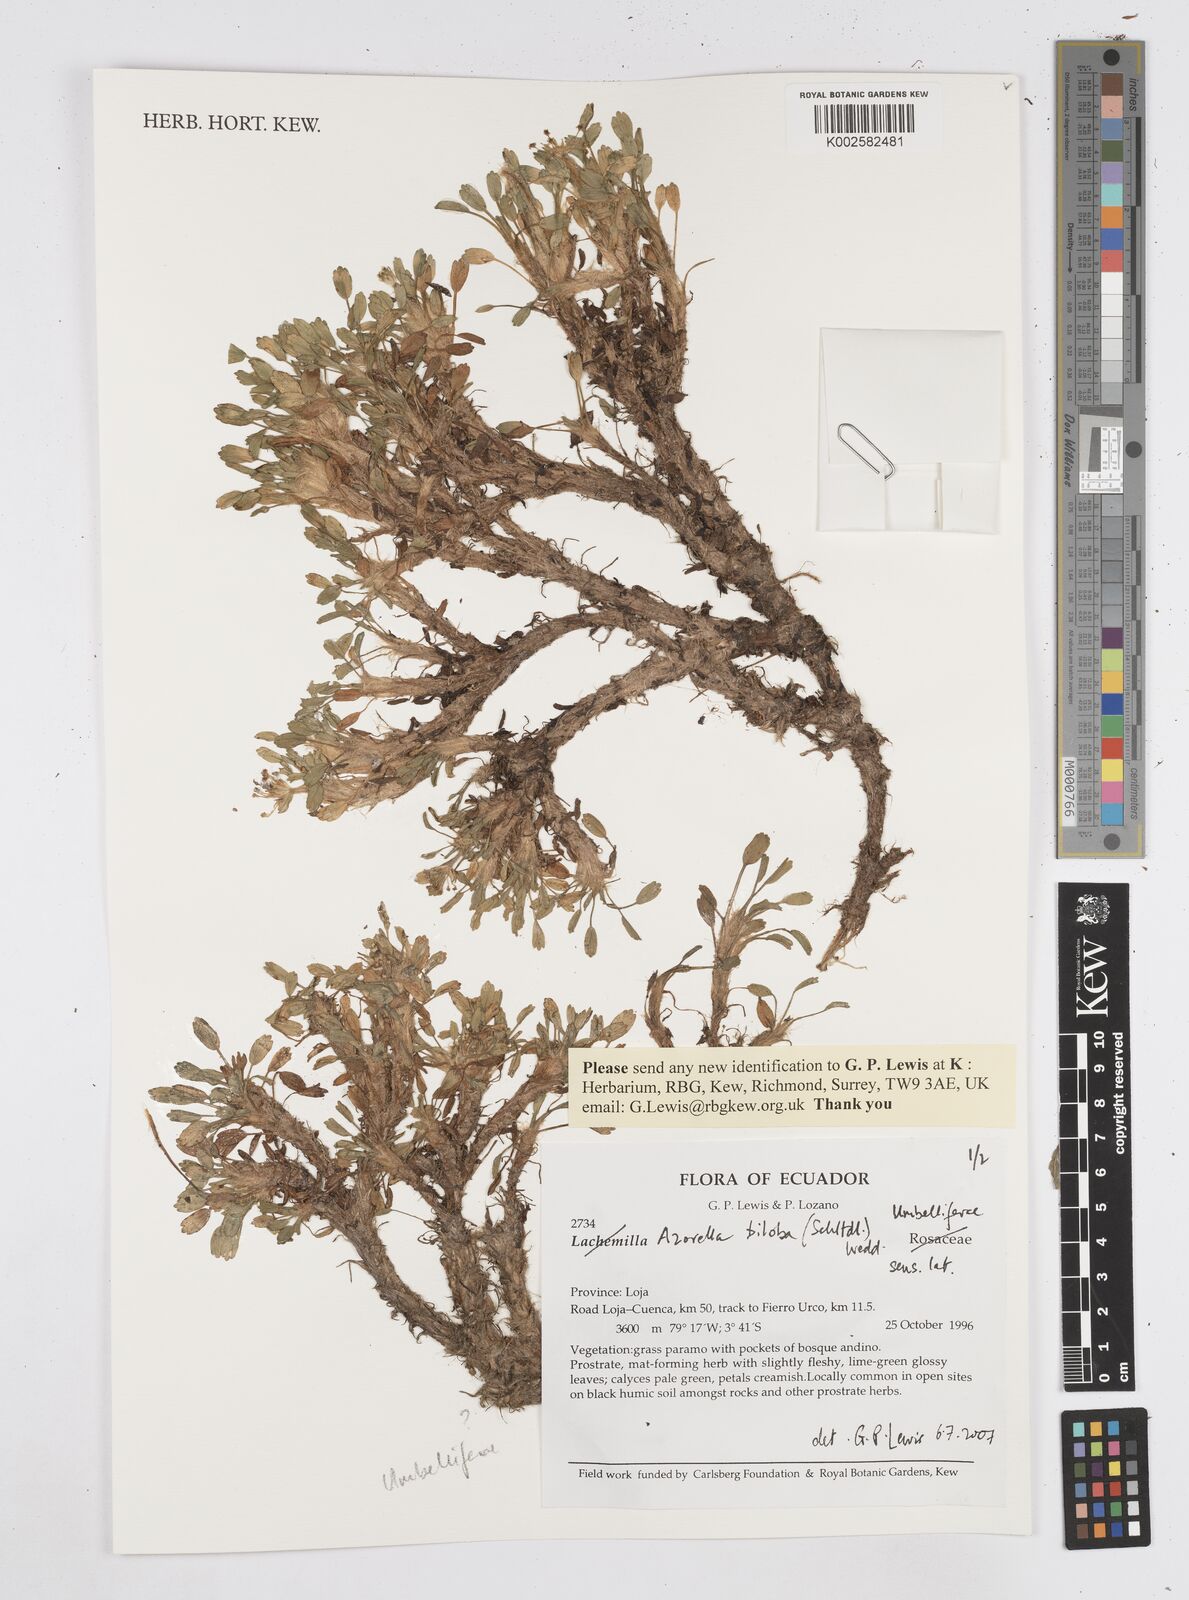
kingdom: Plantae
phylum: Tracheophyta
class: Magnoliopsida
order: Apiales
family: Apiaceae
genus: Azorella
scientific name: Azorella biloba
